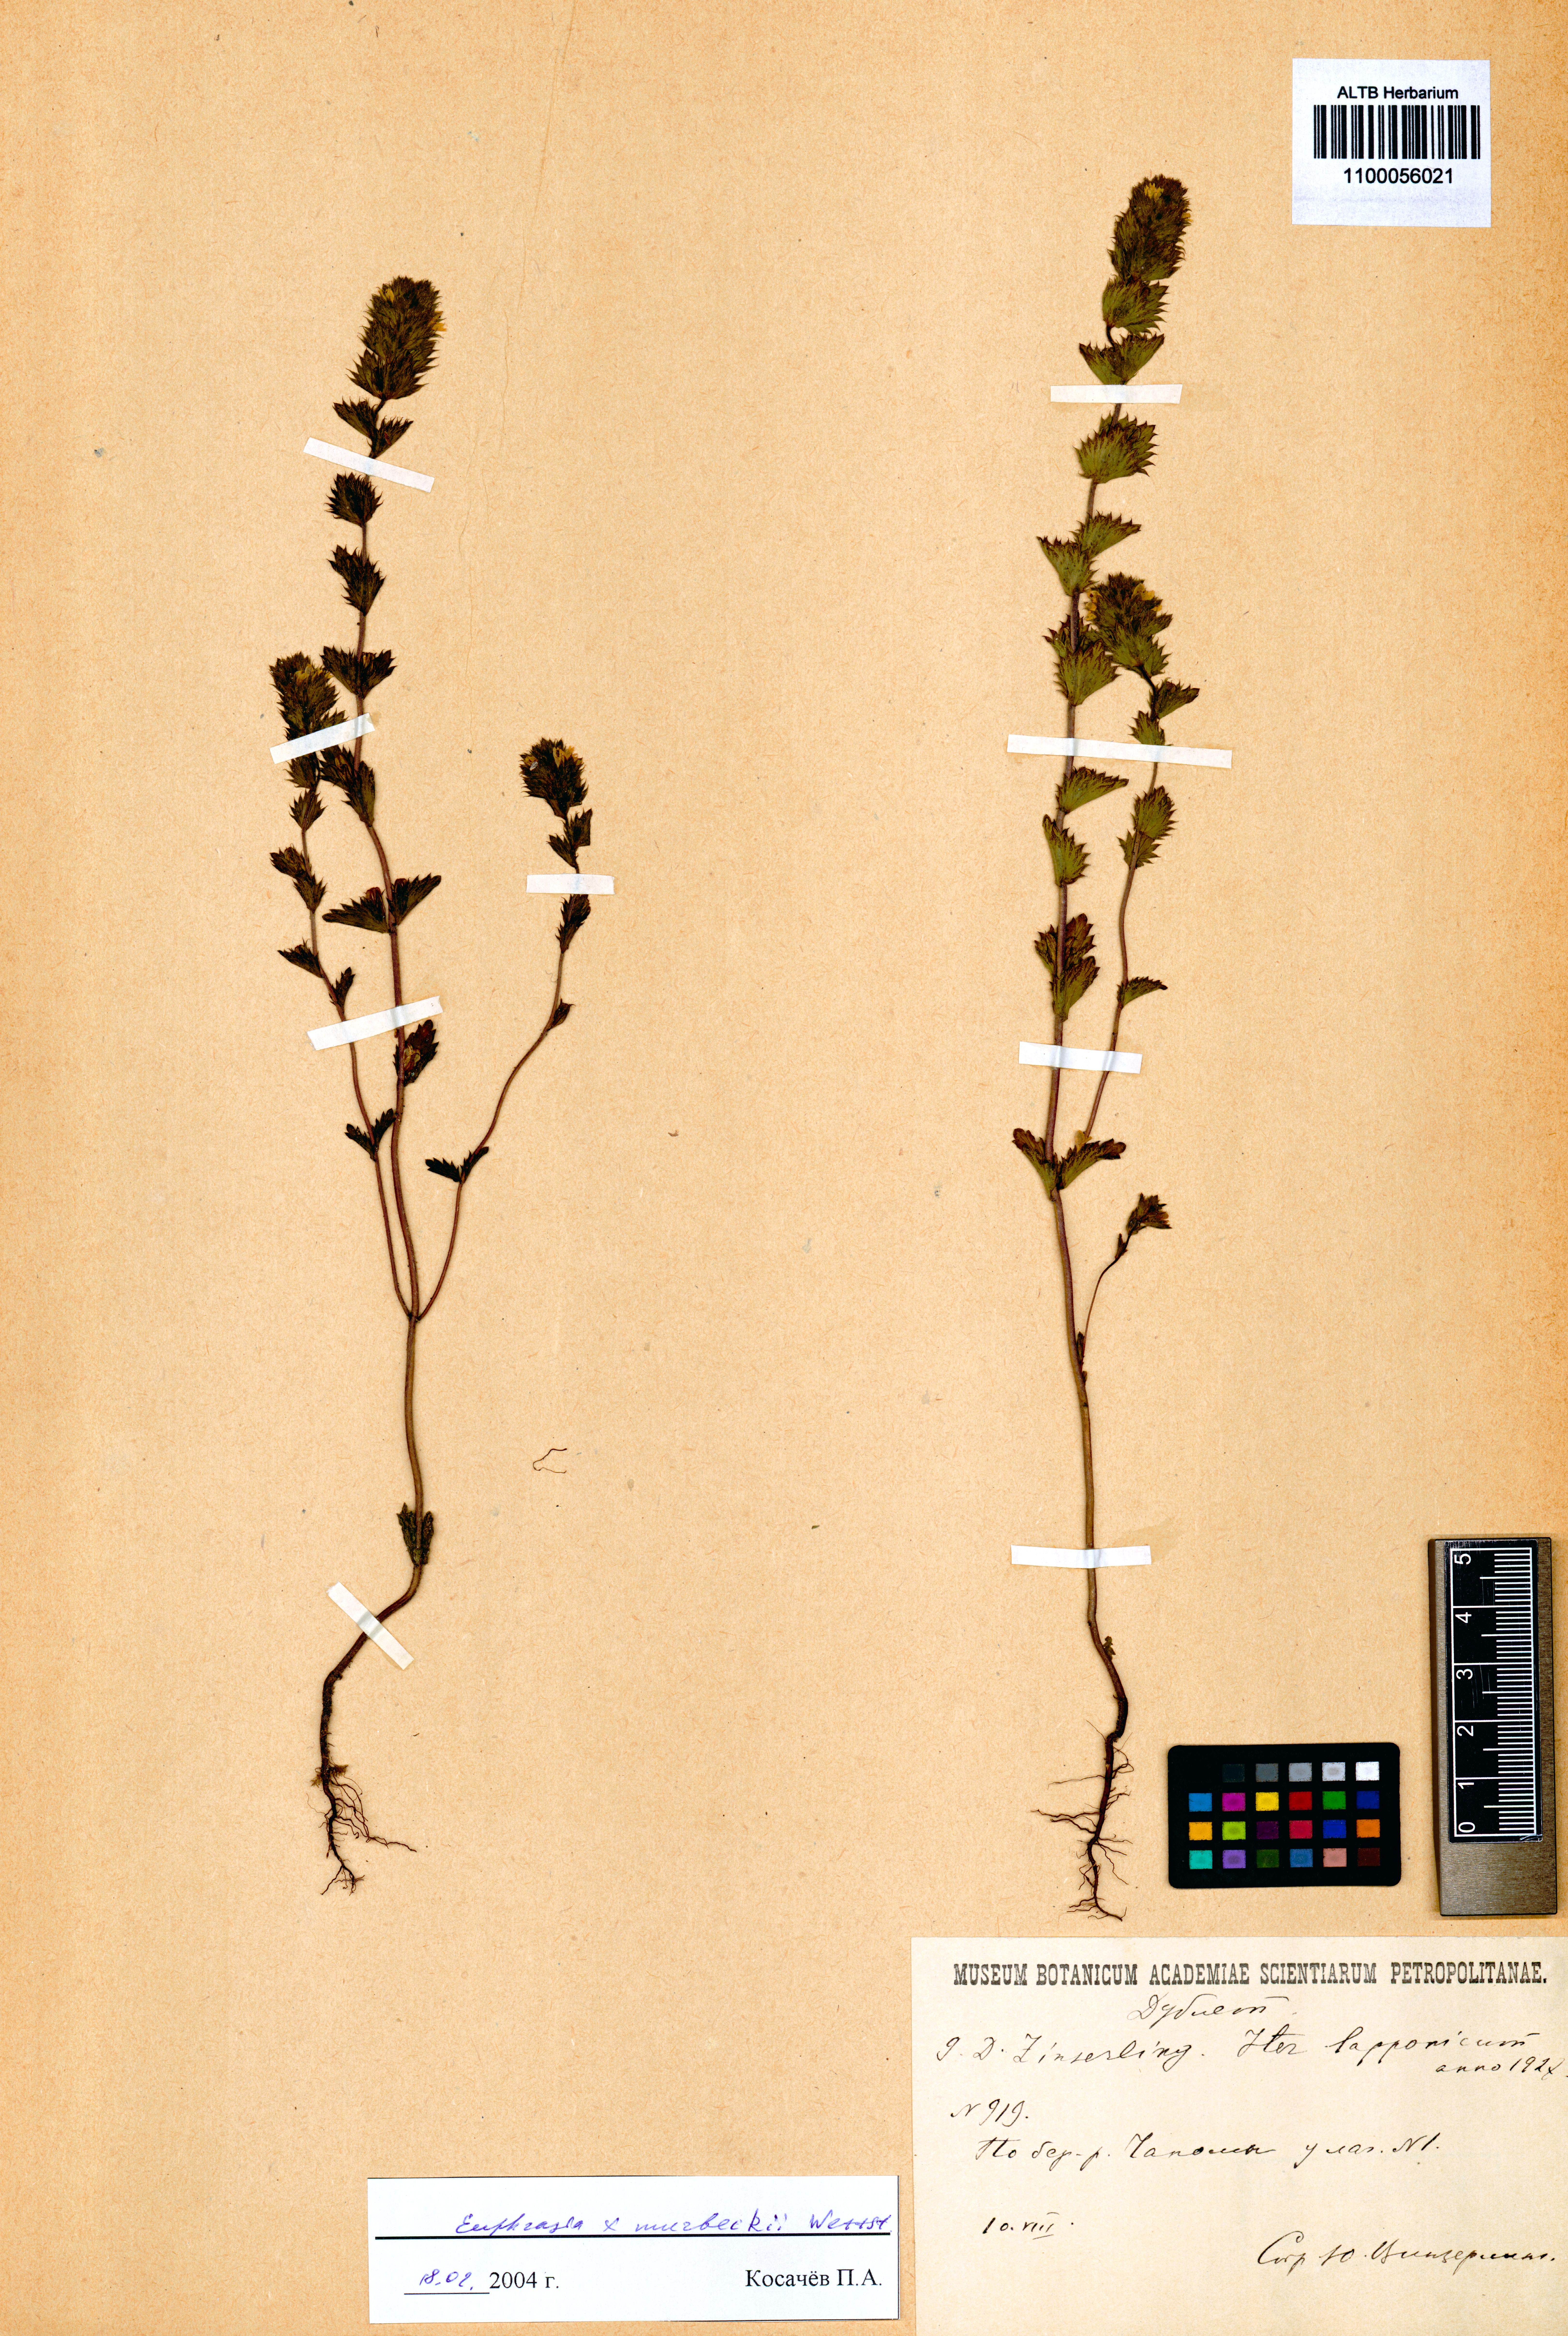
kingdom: Plantae
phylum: Tracheophyta
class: Magnoliopsida
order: Lamiales
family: Orobanchaceae
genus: Euphrasia
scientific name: Euphrasia murbeckii
